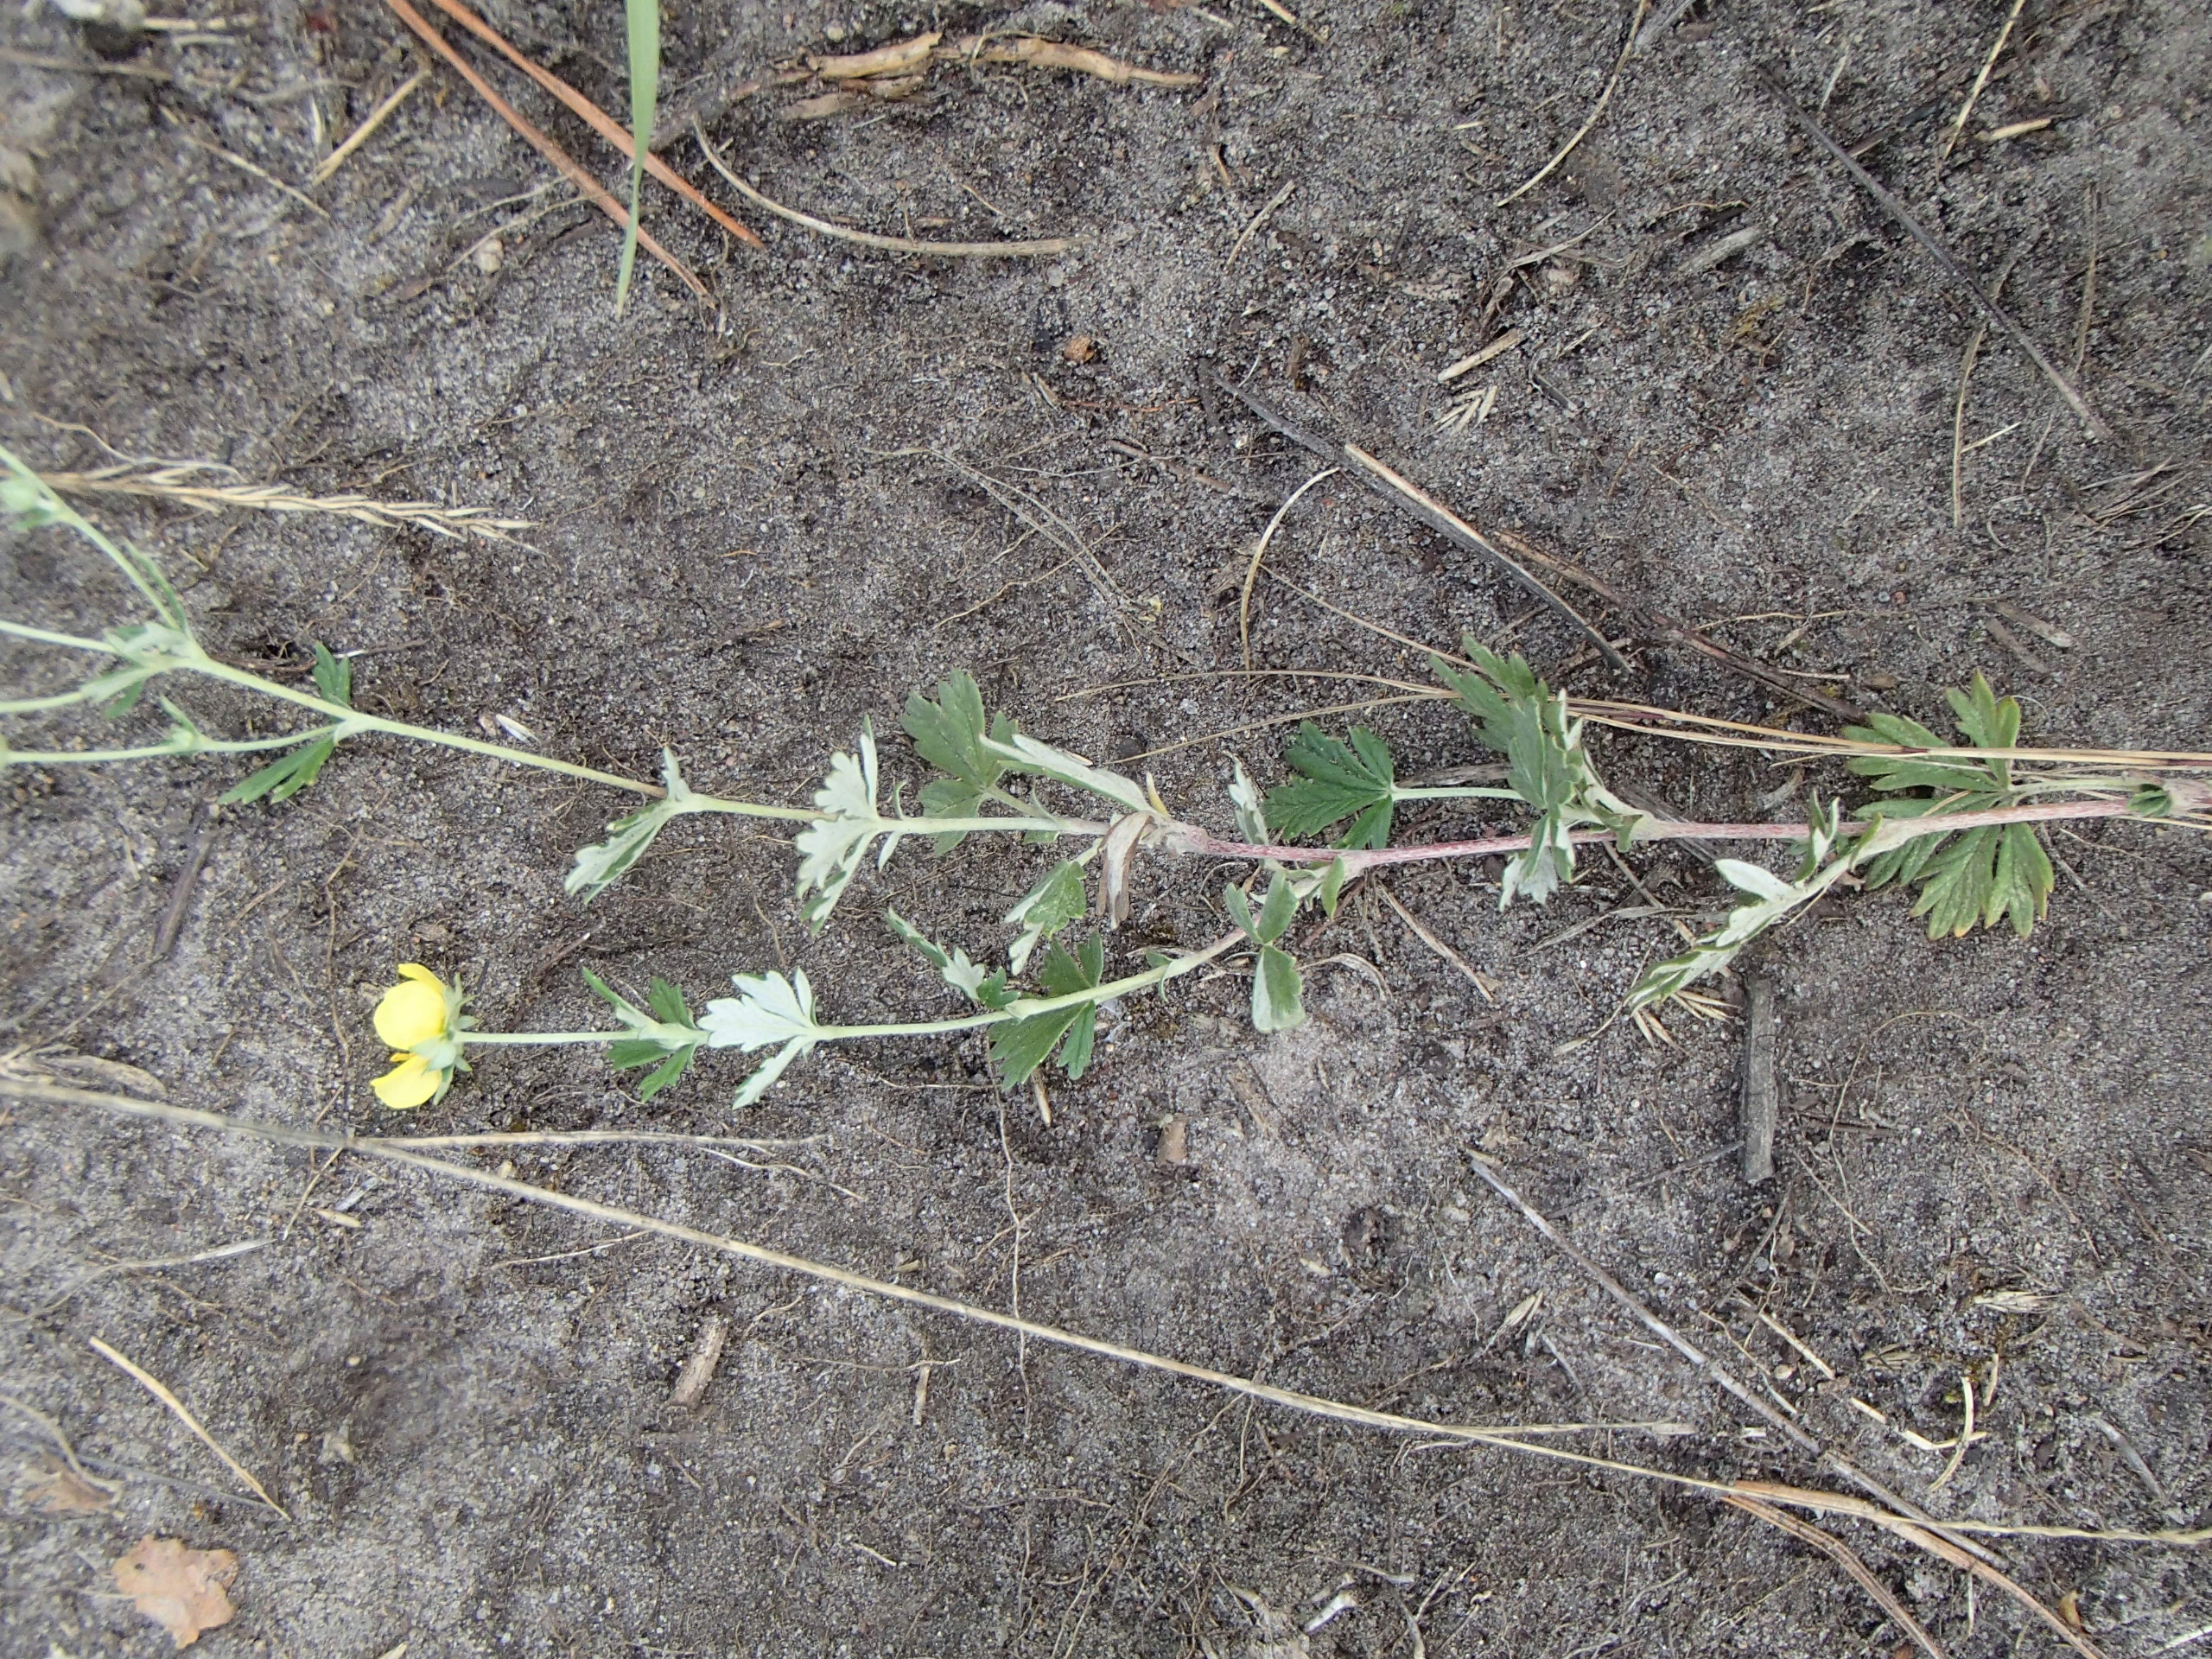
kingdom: Plantae
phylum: Tracheophyta
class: Magnoliopsida
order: Rosales
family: Rosaceae
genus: Potentilla
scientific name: Potentilla argentea
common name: Sølv-potentil
